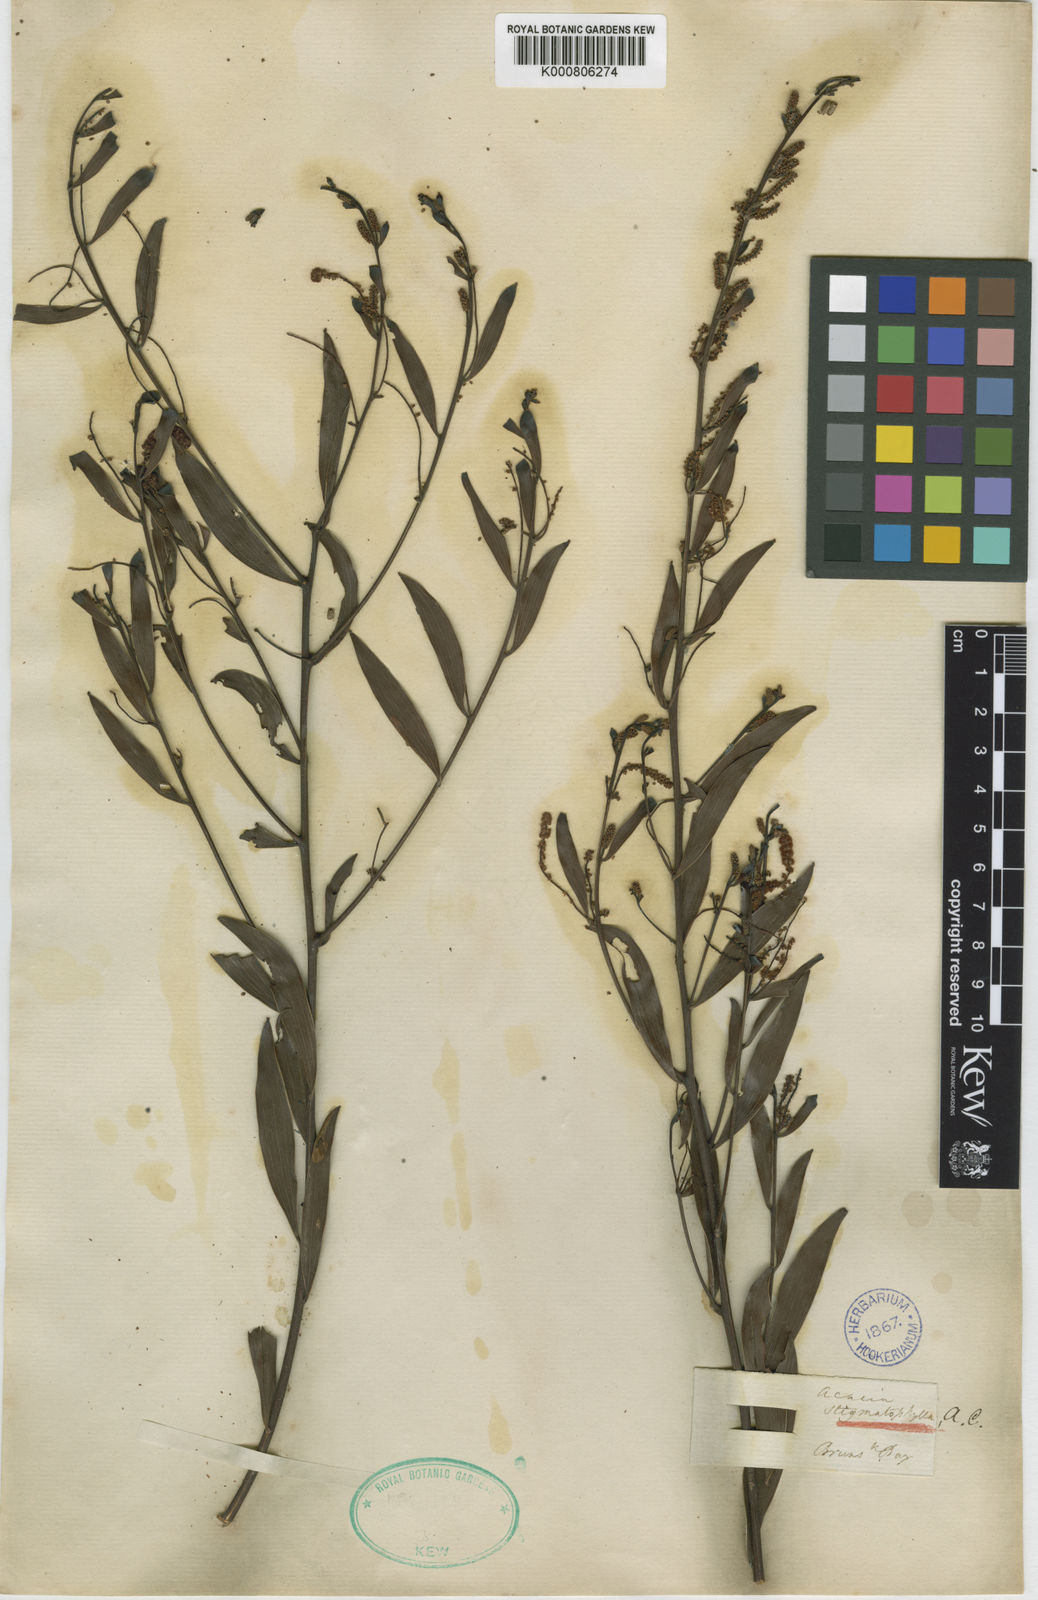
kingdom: Plantae
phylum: Tracheophyta
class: Magnoliopsida
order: Fabales
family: Fabaceae
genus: Acacia
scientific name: Acacia
